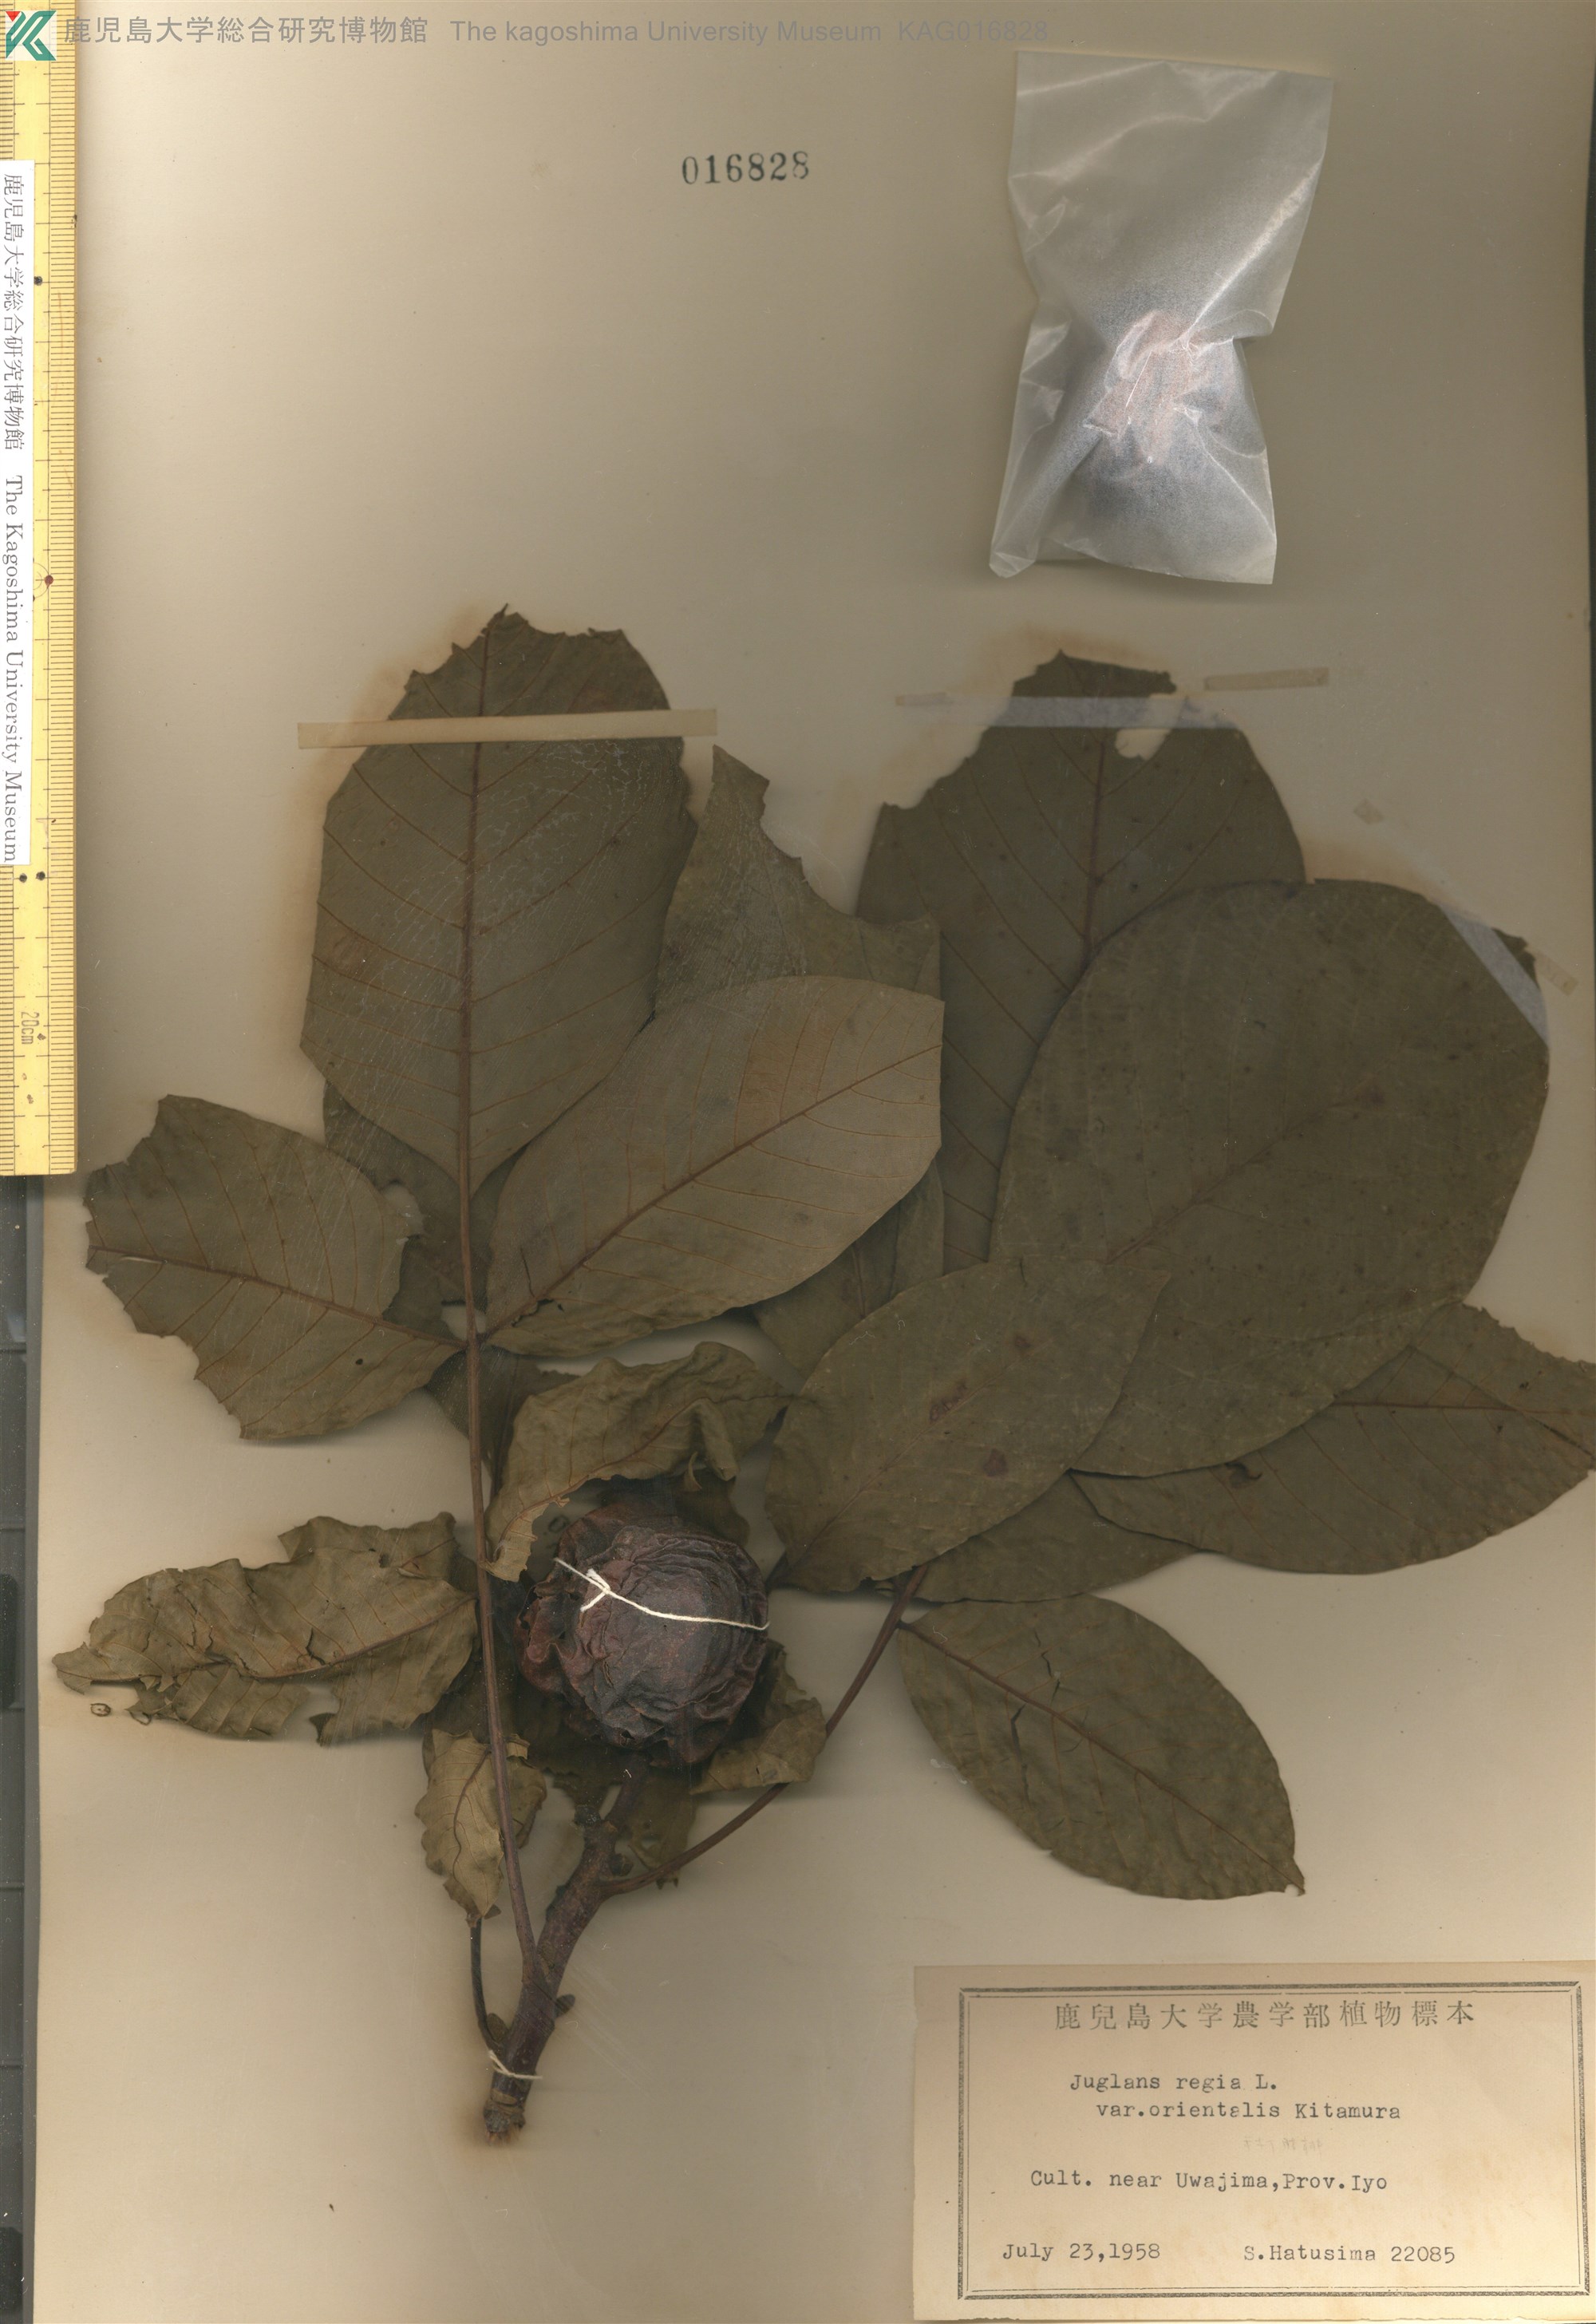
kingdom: Plantae
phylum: Tracheophyta
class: Magnoliopsida
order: Fagales
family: Juglandaceae
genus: Juglans
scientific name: Juglans regia
